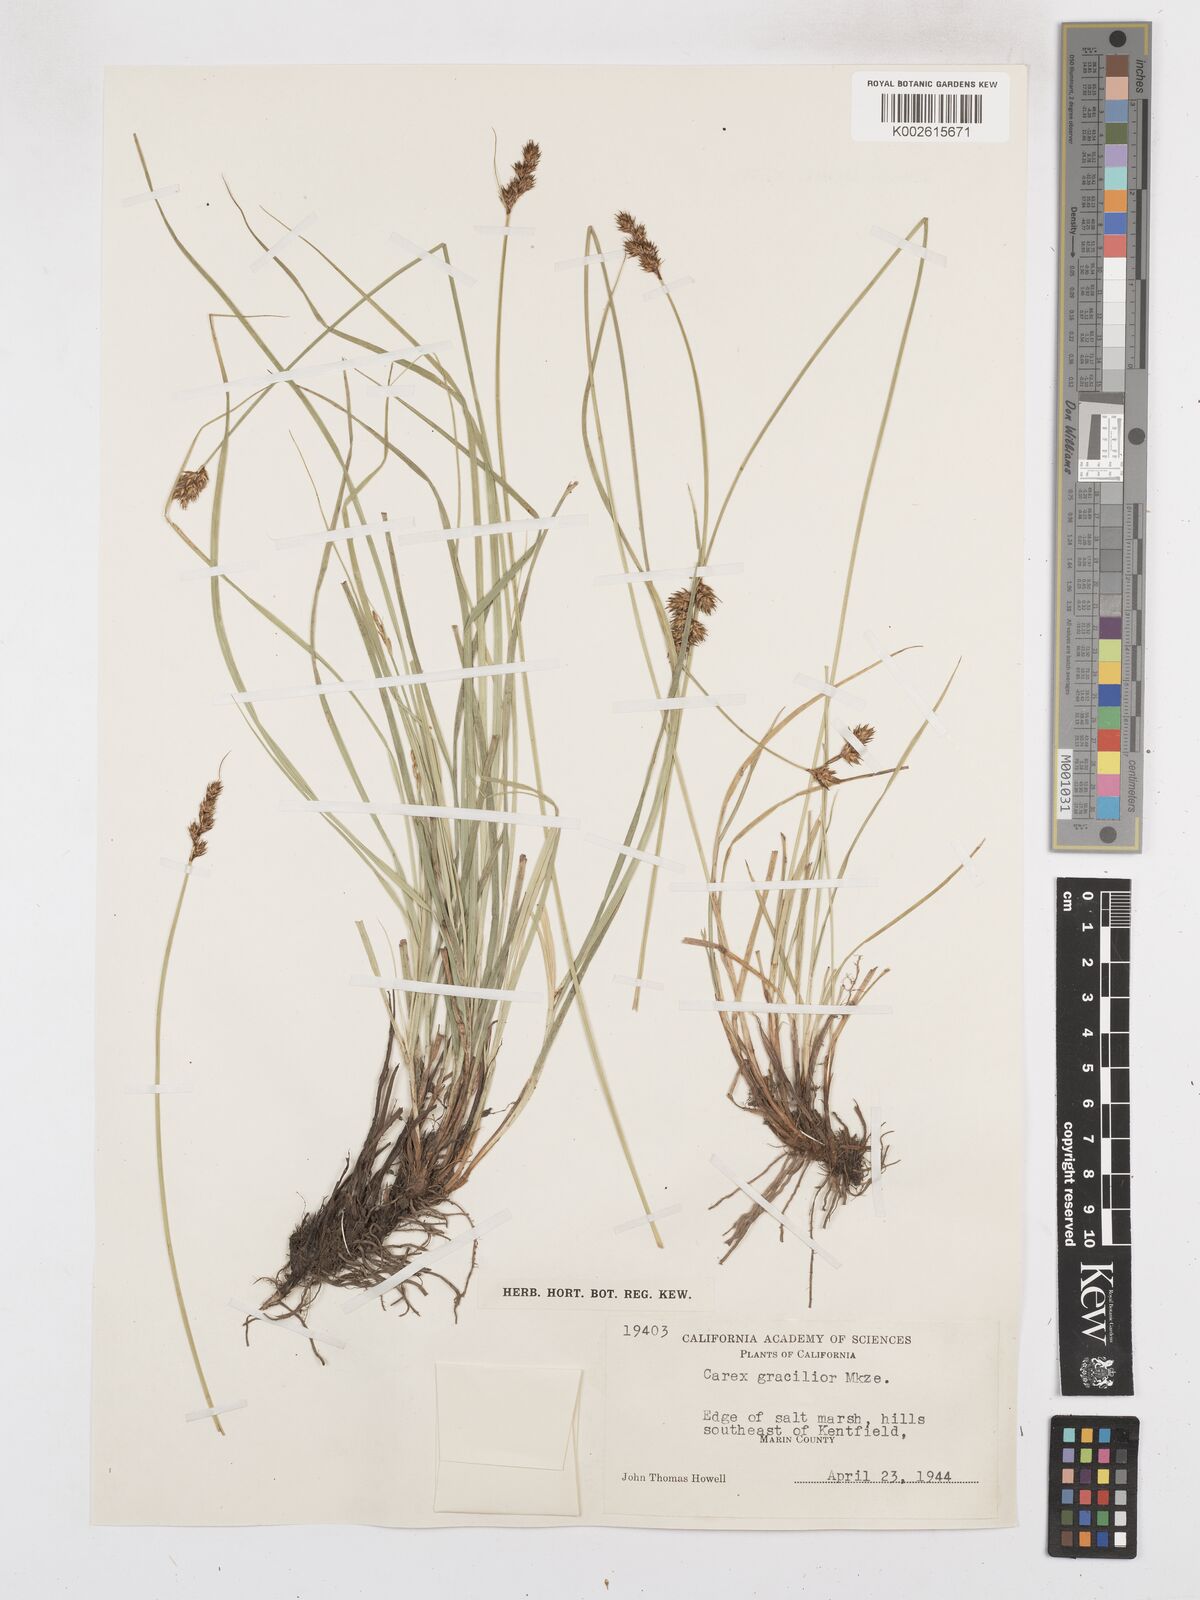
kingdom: Plantae
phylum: Tracheophyta
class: Liliopsida
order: Poales
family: Cyperaceae
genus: Carex
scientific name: Carex gracilior
